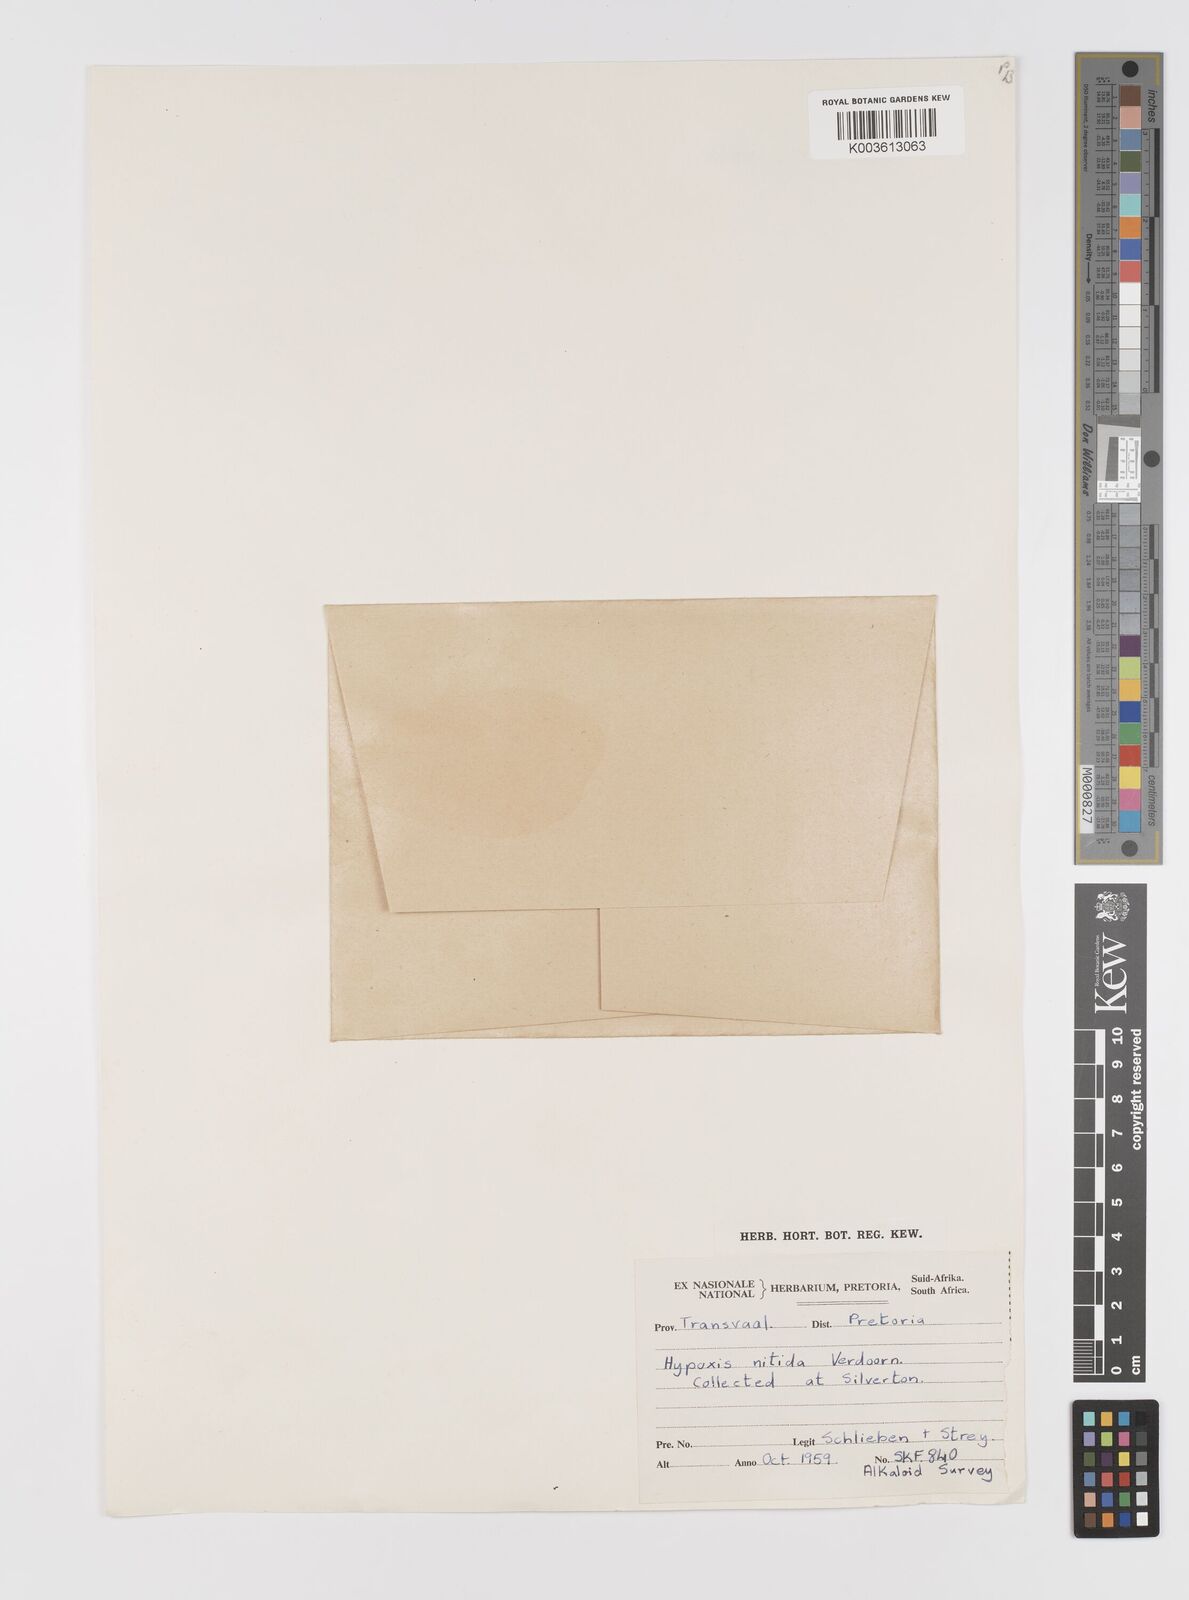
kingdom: Plantae
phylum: Tracheophyta
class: Liliopsida
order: Asparagales
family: Hypoxidaceae
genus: Hypoxis
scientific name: Hypoxis obtusa
